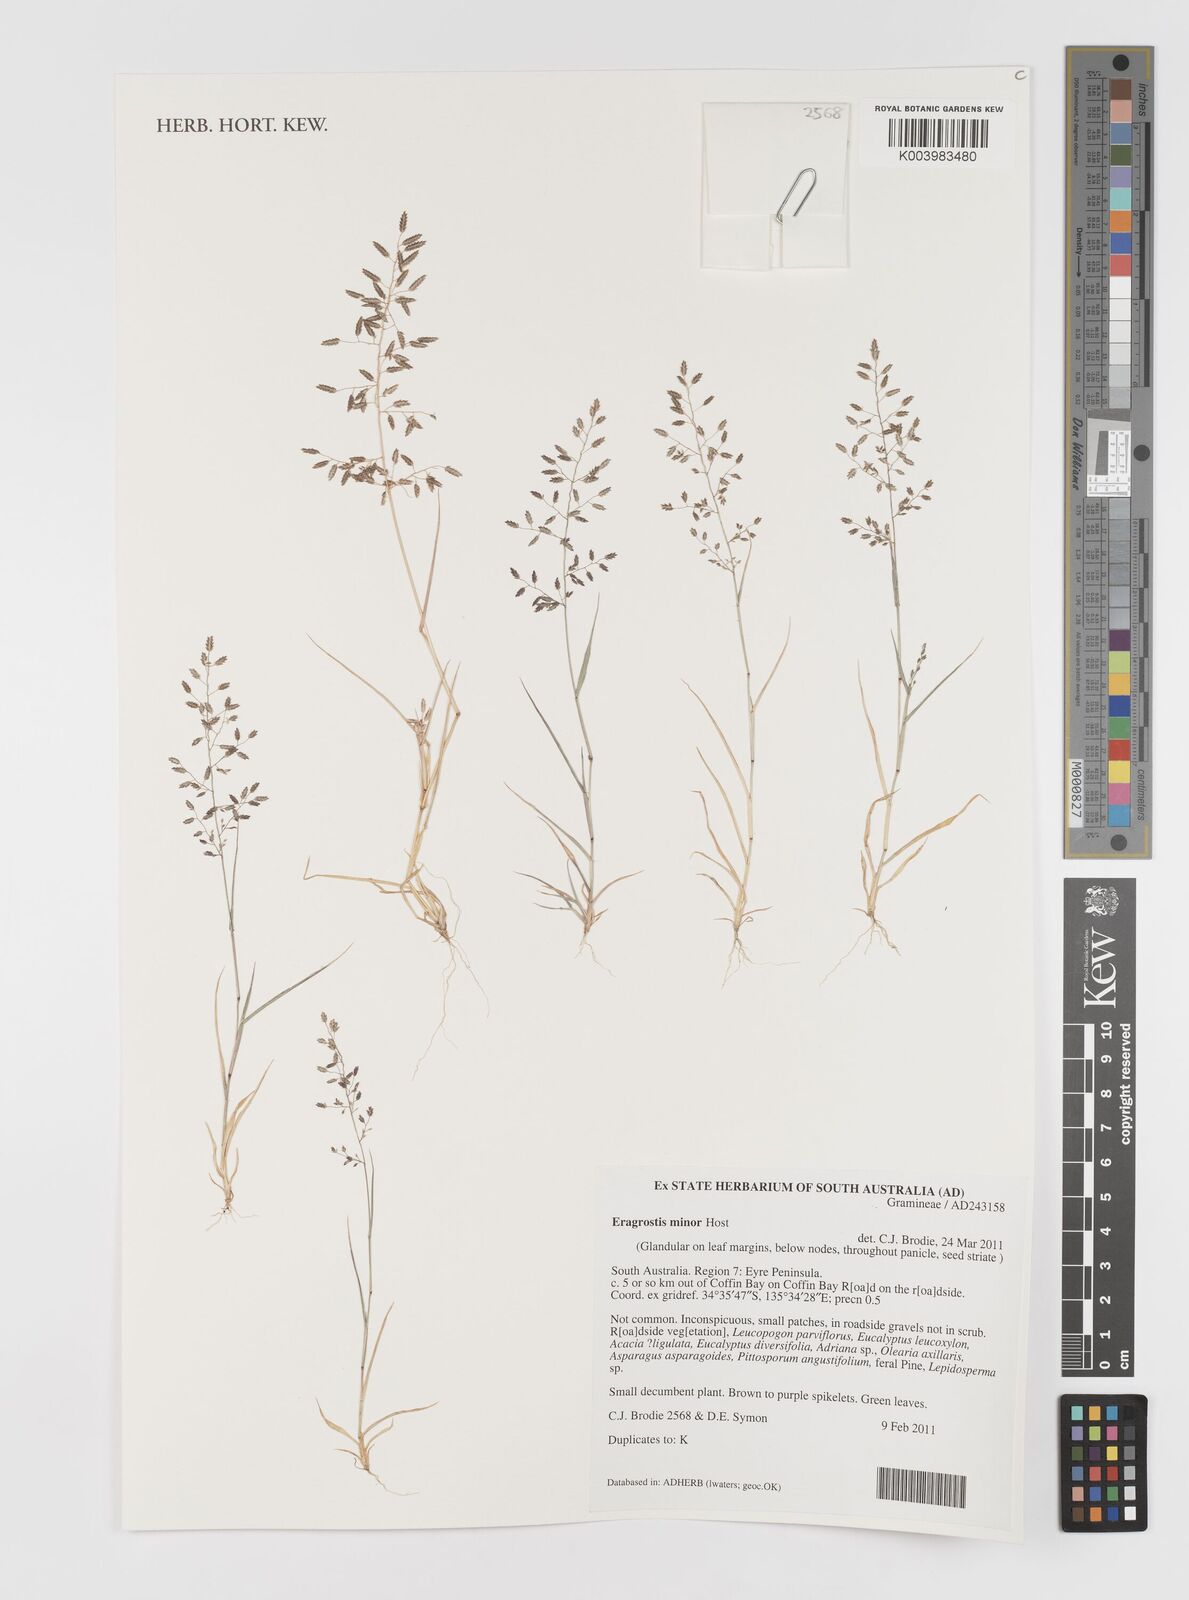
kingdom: Plantae
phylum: Tracheophyta
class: Liliopsida
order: Poales
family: Poaceae
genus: Eragrostis
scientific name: Eragrostis minor
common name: Small love-grass
